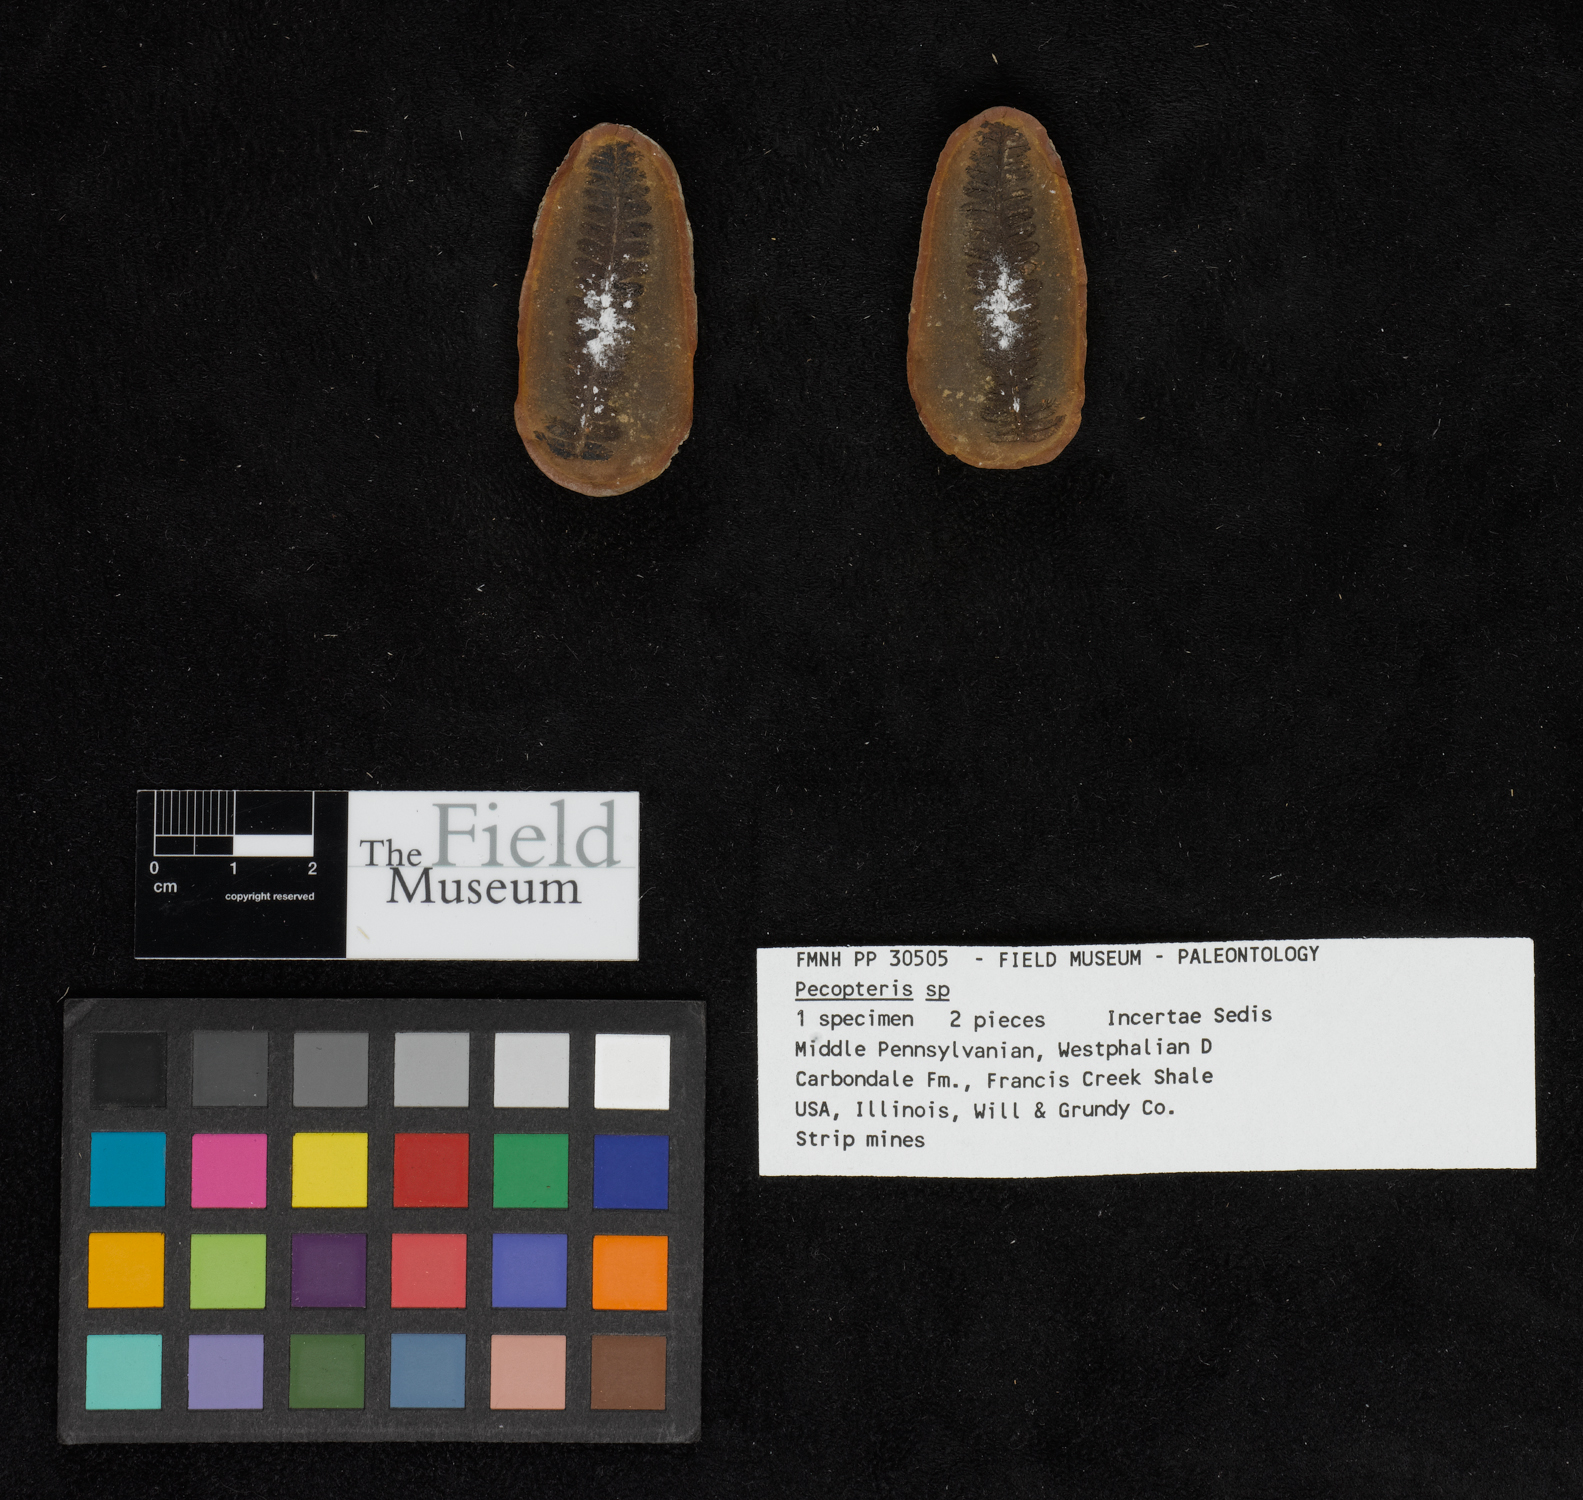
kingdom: Plantae
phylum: Tracheophyta
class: Polypodiopsida
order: Marattiales
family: Asterothecaceae
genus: Pecopteris
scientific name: Pecopteris
